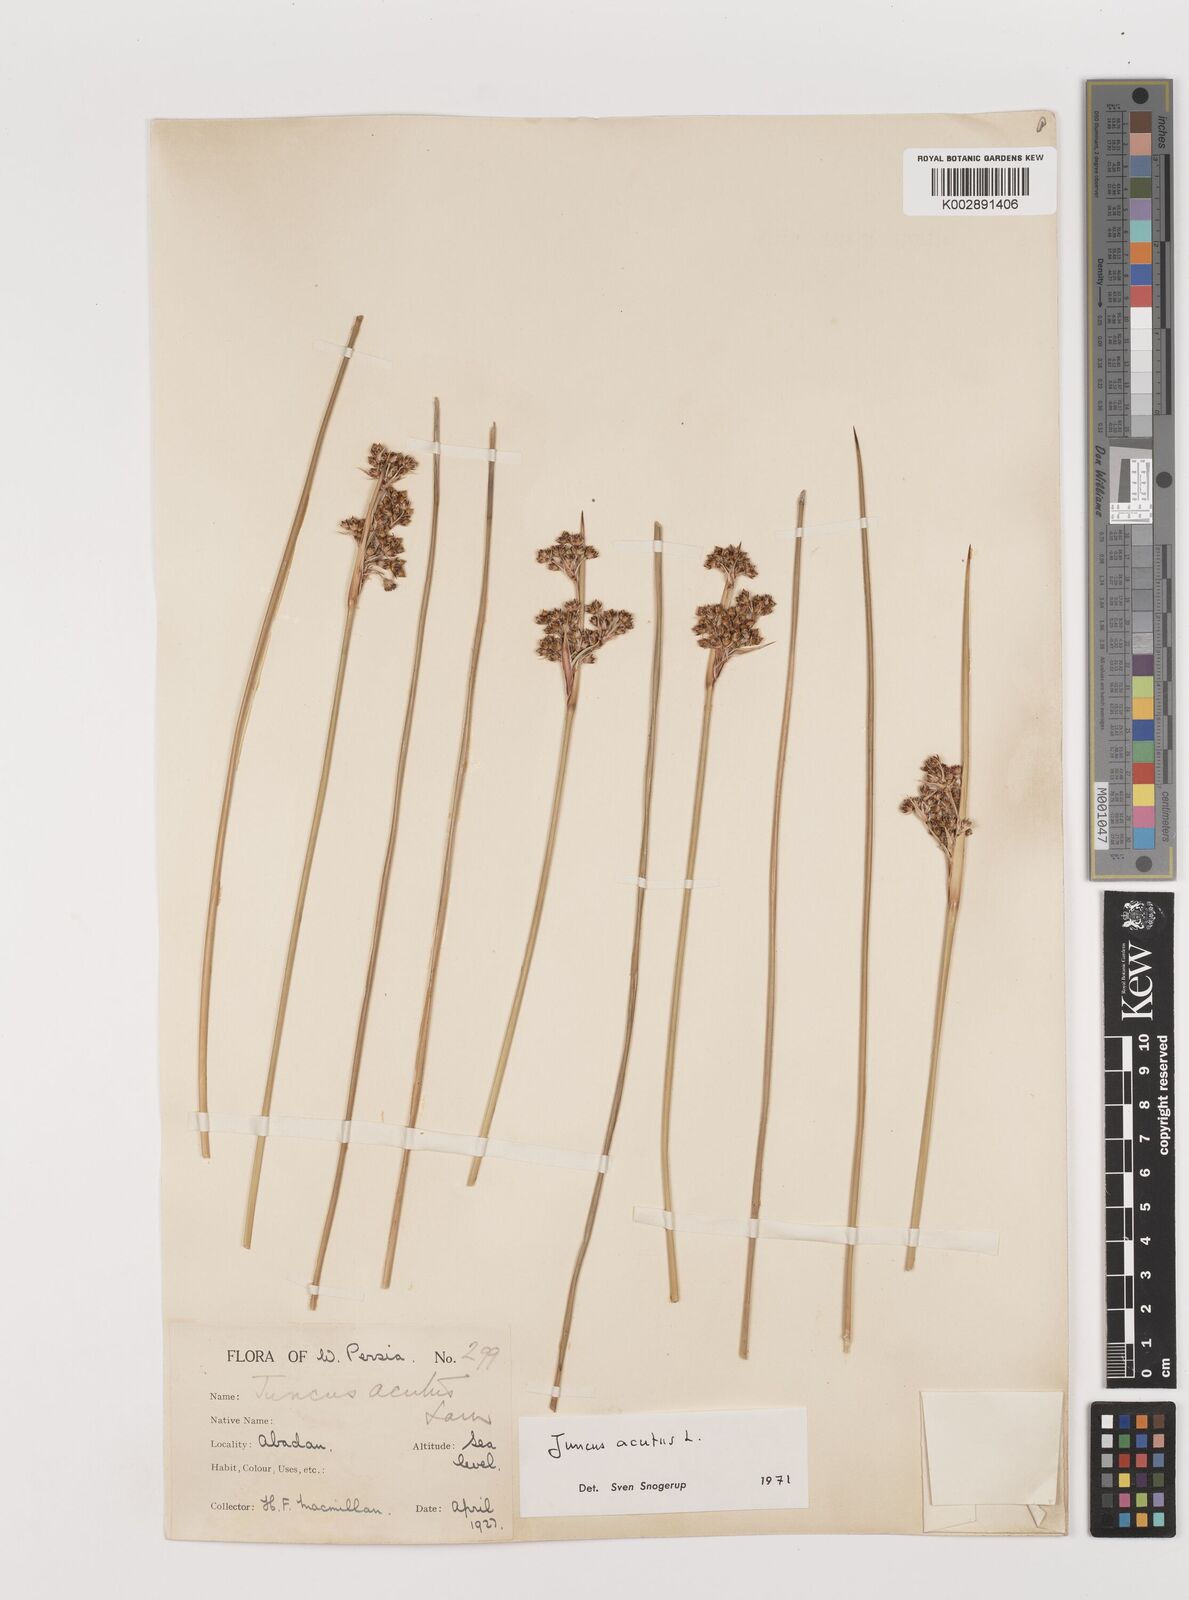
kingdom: Plantae
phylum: Tracheophyta
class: Liliopsida
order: Poales
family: Juncaceae
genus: Juncus
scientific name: Juncus acutus
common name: Sharp rush
